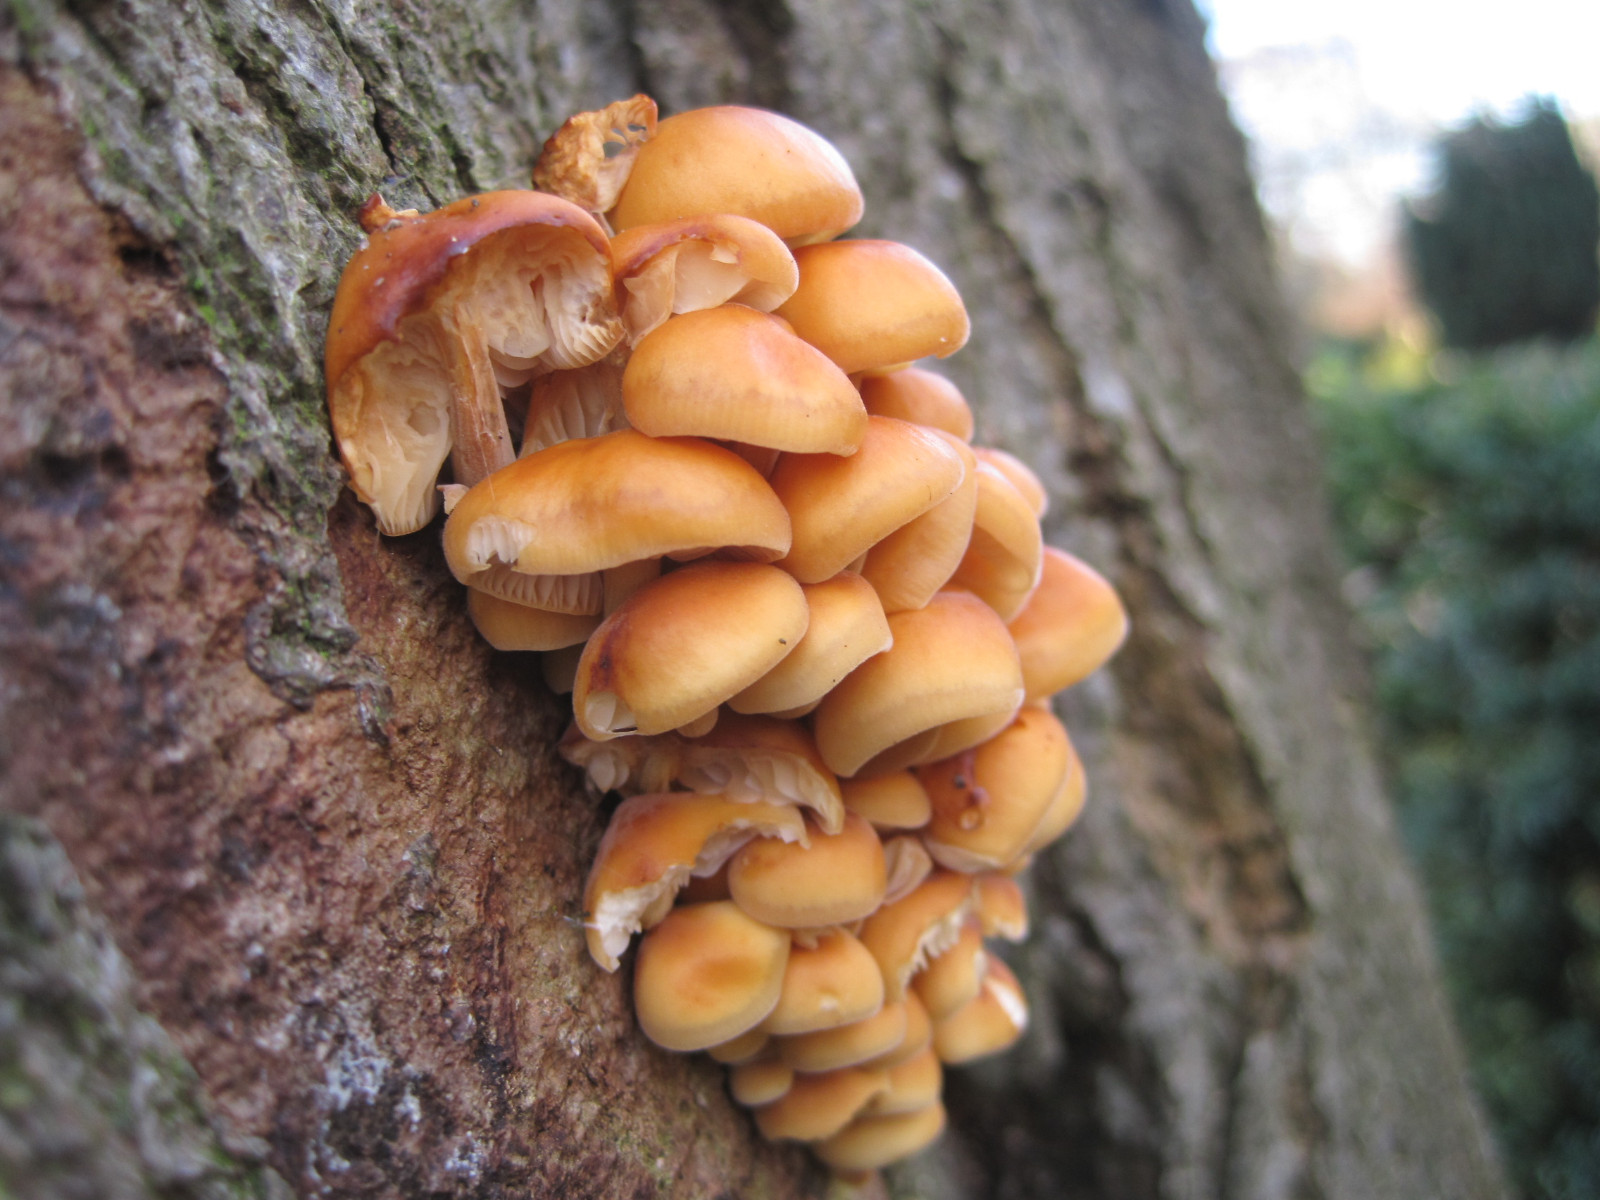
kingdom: Fungi
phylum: Basidiomycota
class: Agaricomycetes
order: Agaricales
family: Physalacriaceae
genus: Flammulina
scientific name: Flammulina velutipes
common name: gul fløjlsfod
